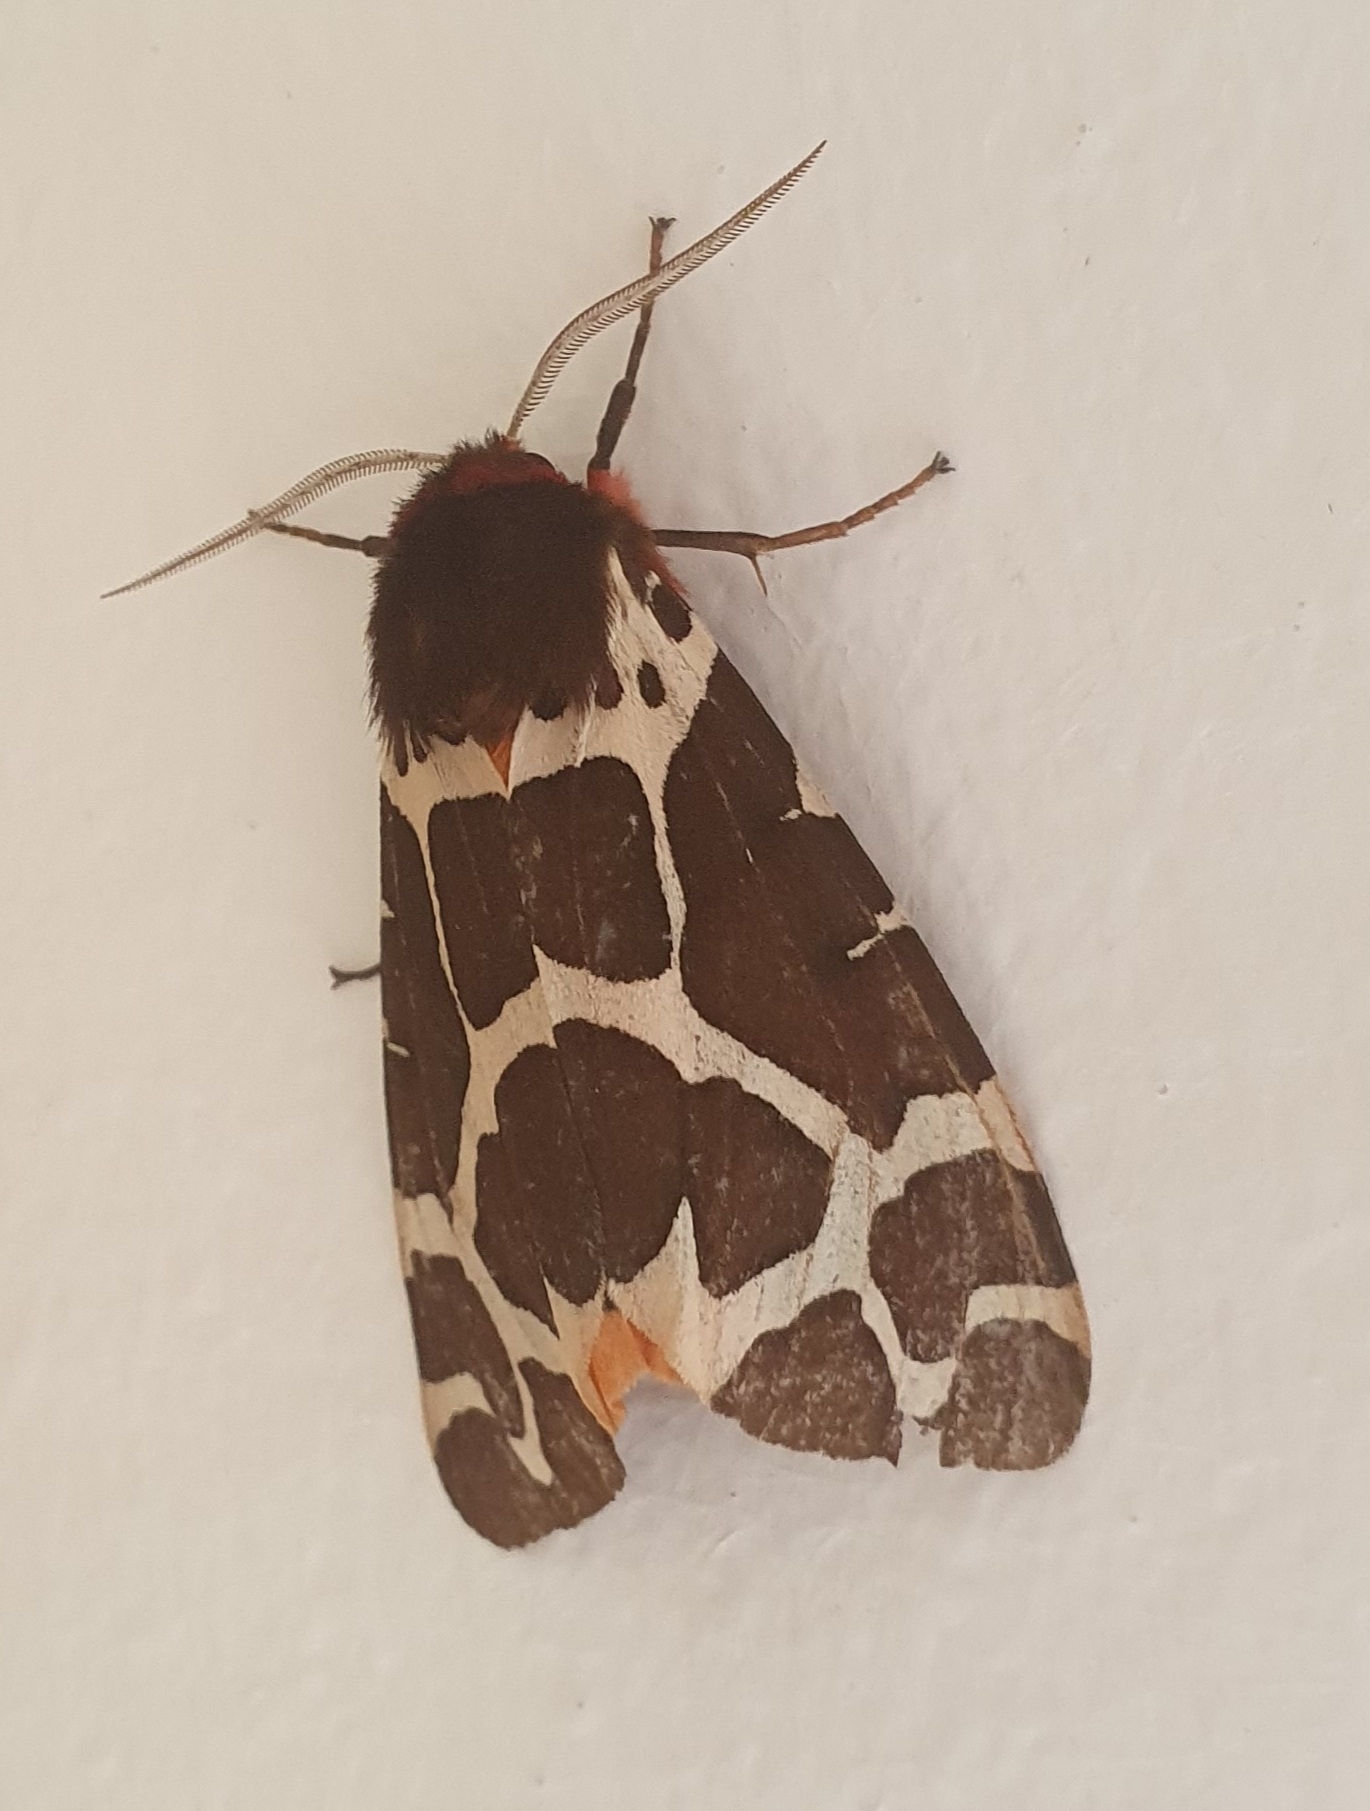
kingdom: Animalia
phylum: Arthropoda
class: Insecta
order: Lepidoptera
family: Erebidae
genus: Arctia
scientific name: Arctia caja
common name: Brun bjørn
